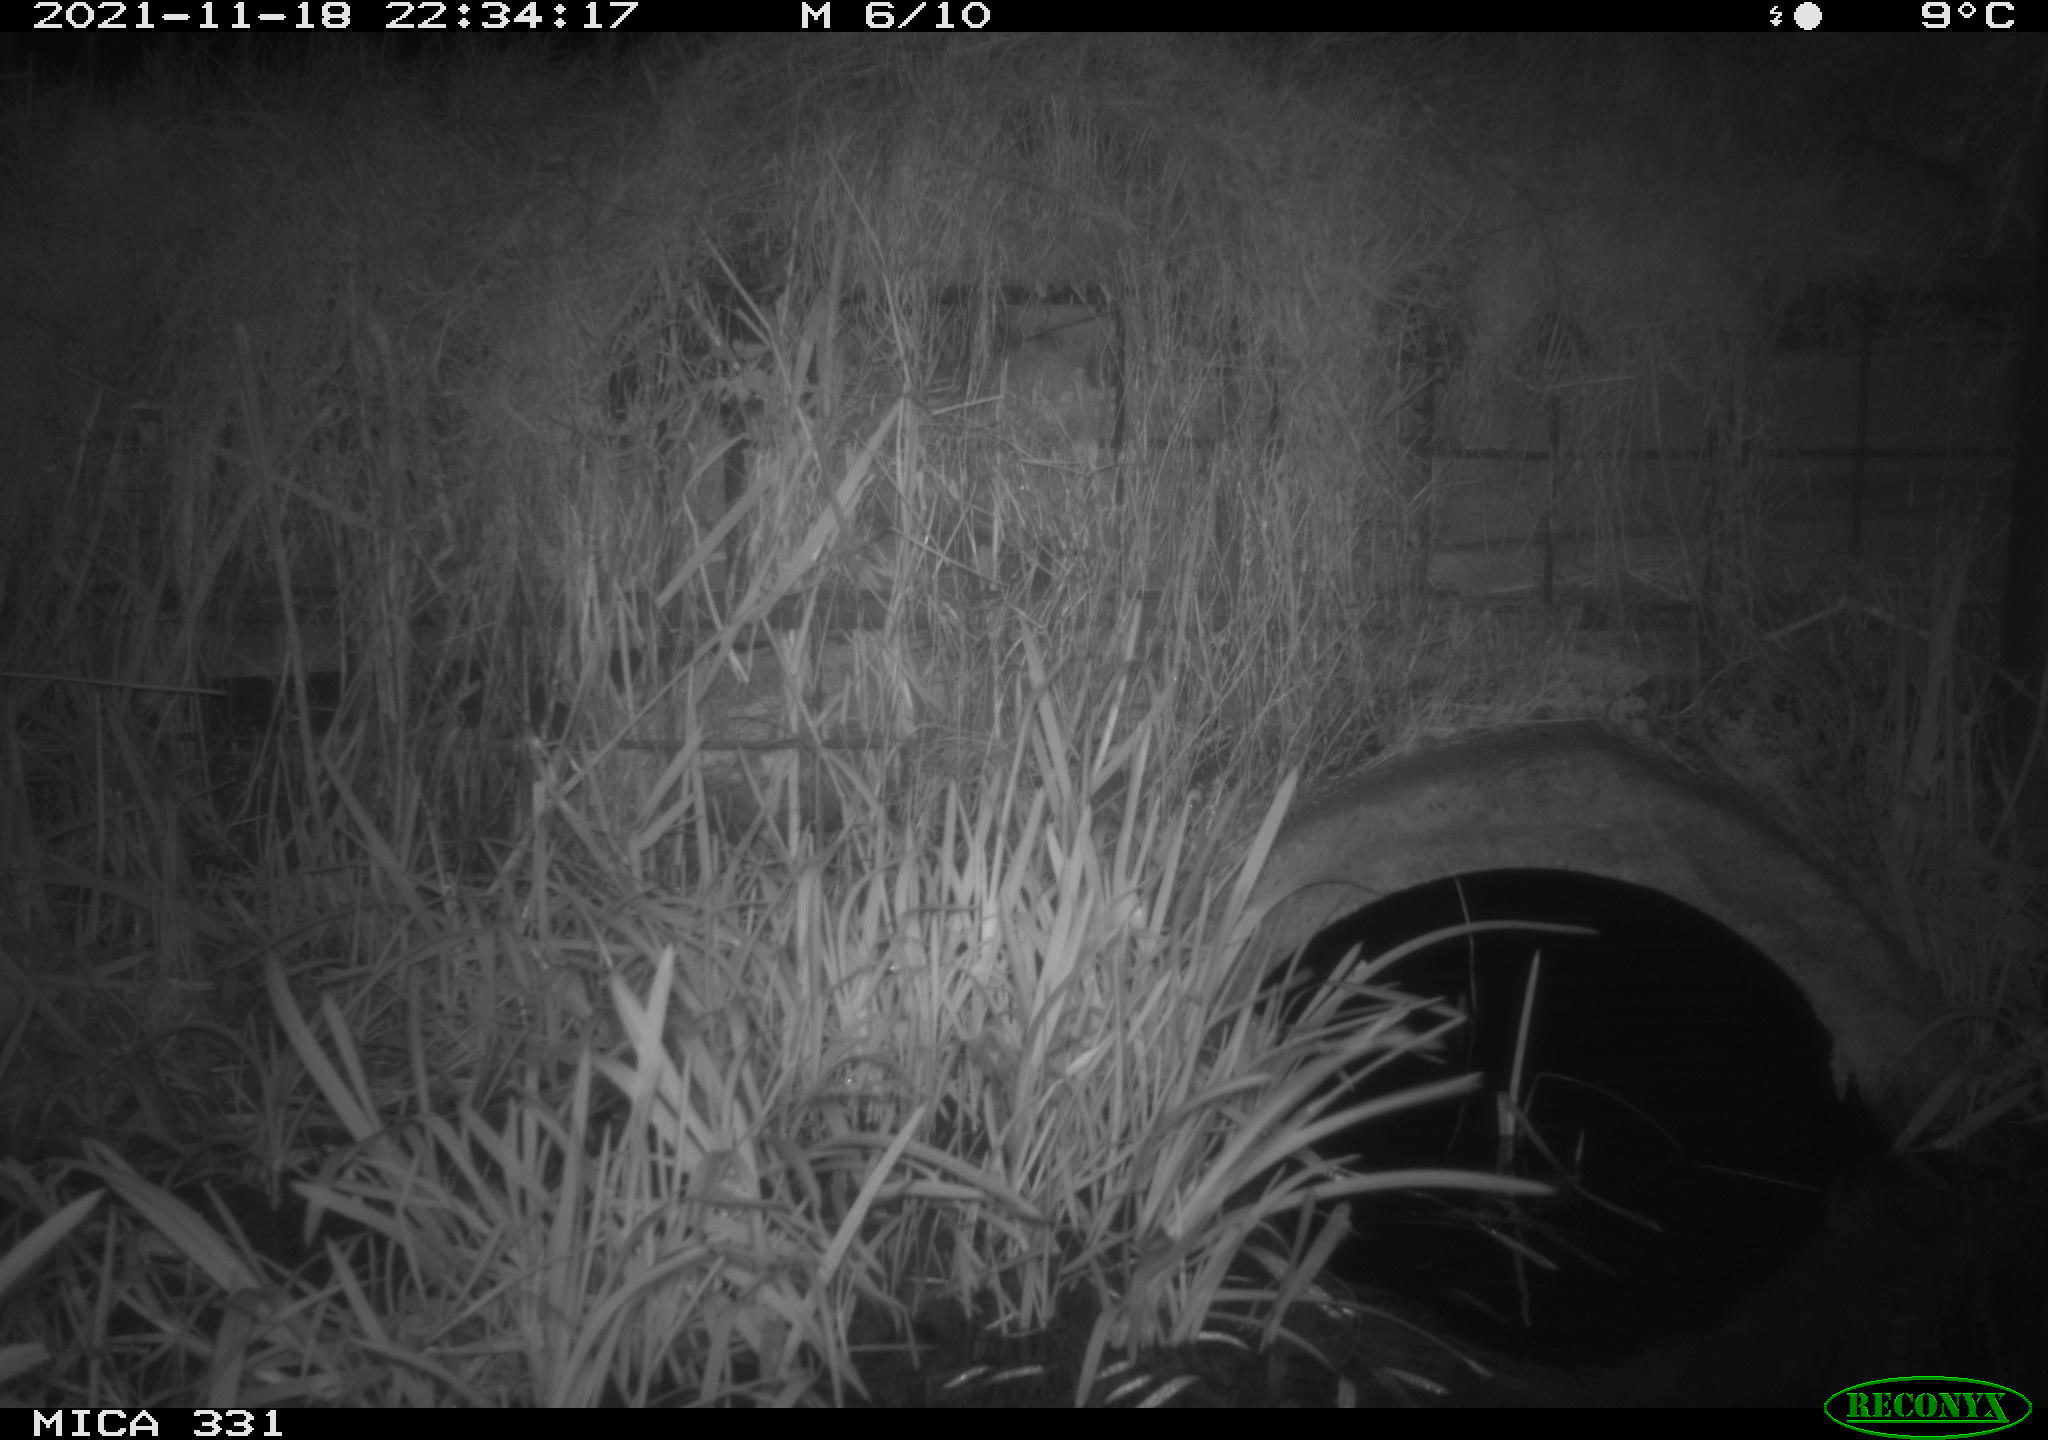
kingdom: Animalia
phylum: Chordata
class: Mammalia
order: Rodentia
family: Muridae
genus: Rattus
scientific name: Rattus norvegicus
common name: Brown rat
